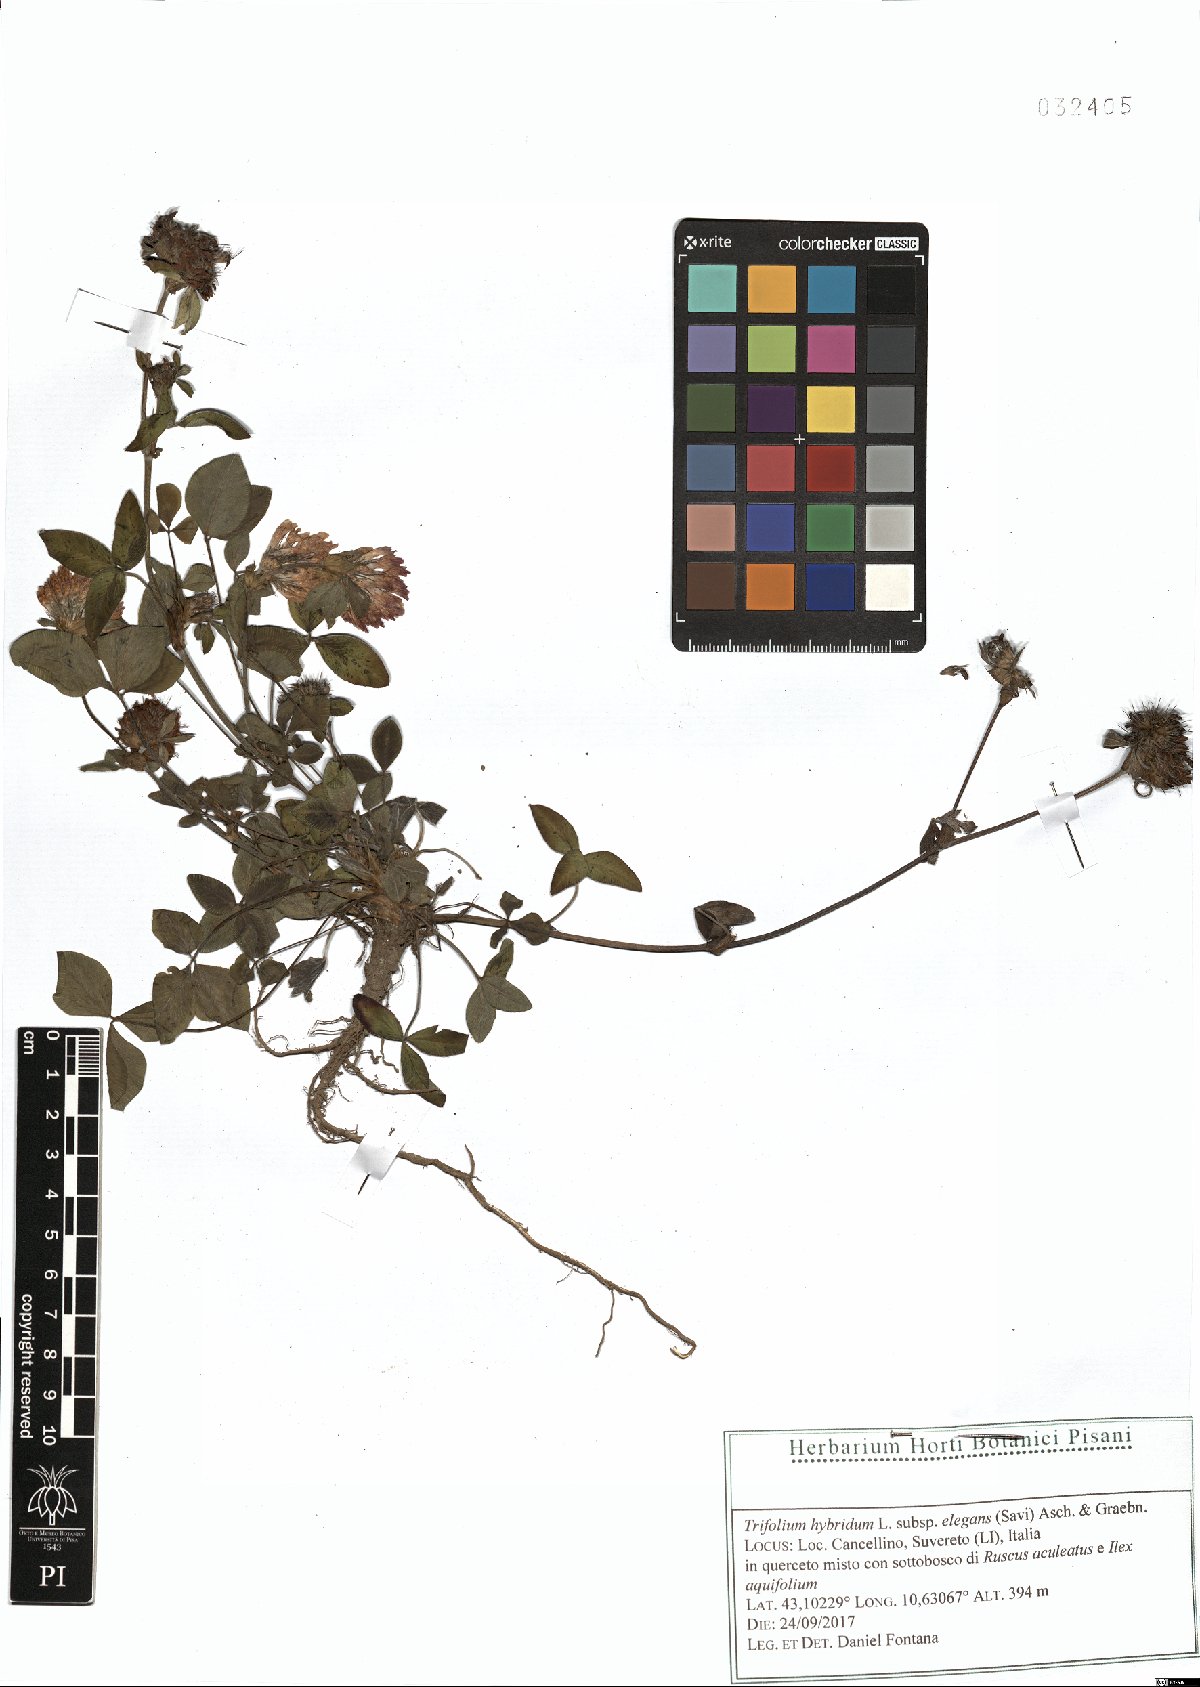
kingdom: Plantae
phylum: Tracheophyta
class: Magnoliopsida
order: Fabales
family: Fabaceae
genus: Trifolium
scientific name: Trifolium hybridum
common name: Alsike clover
